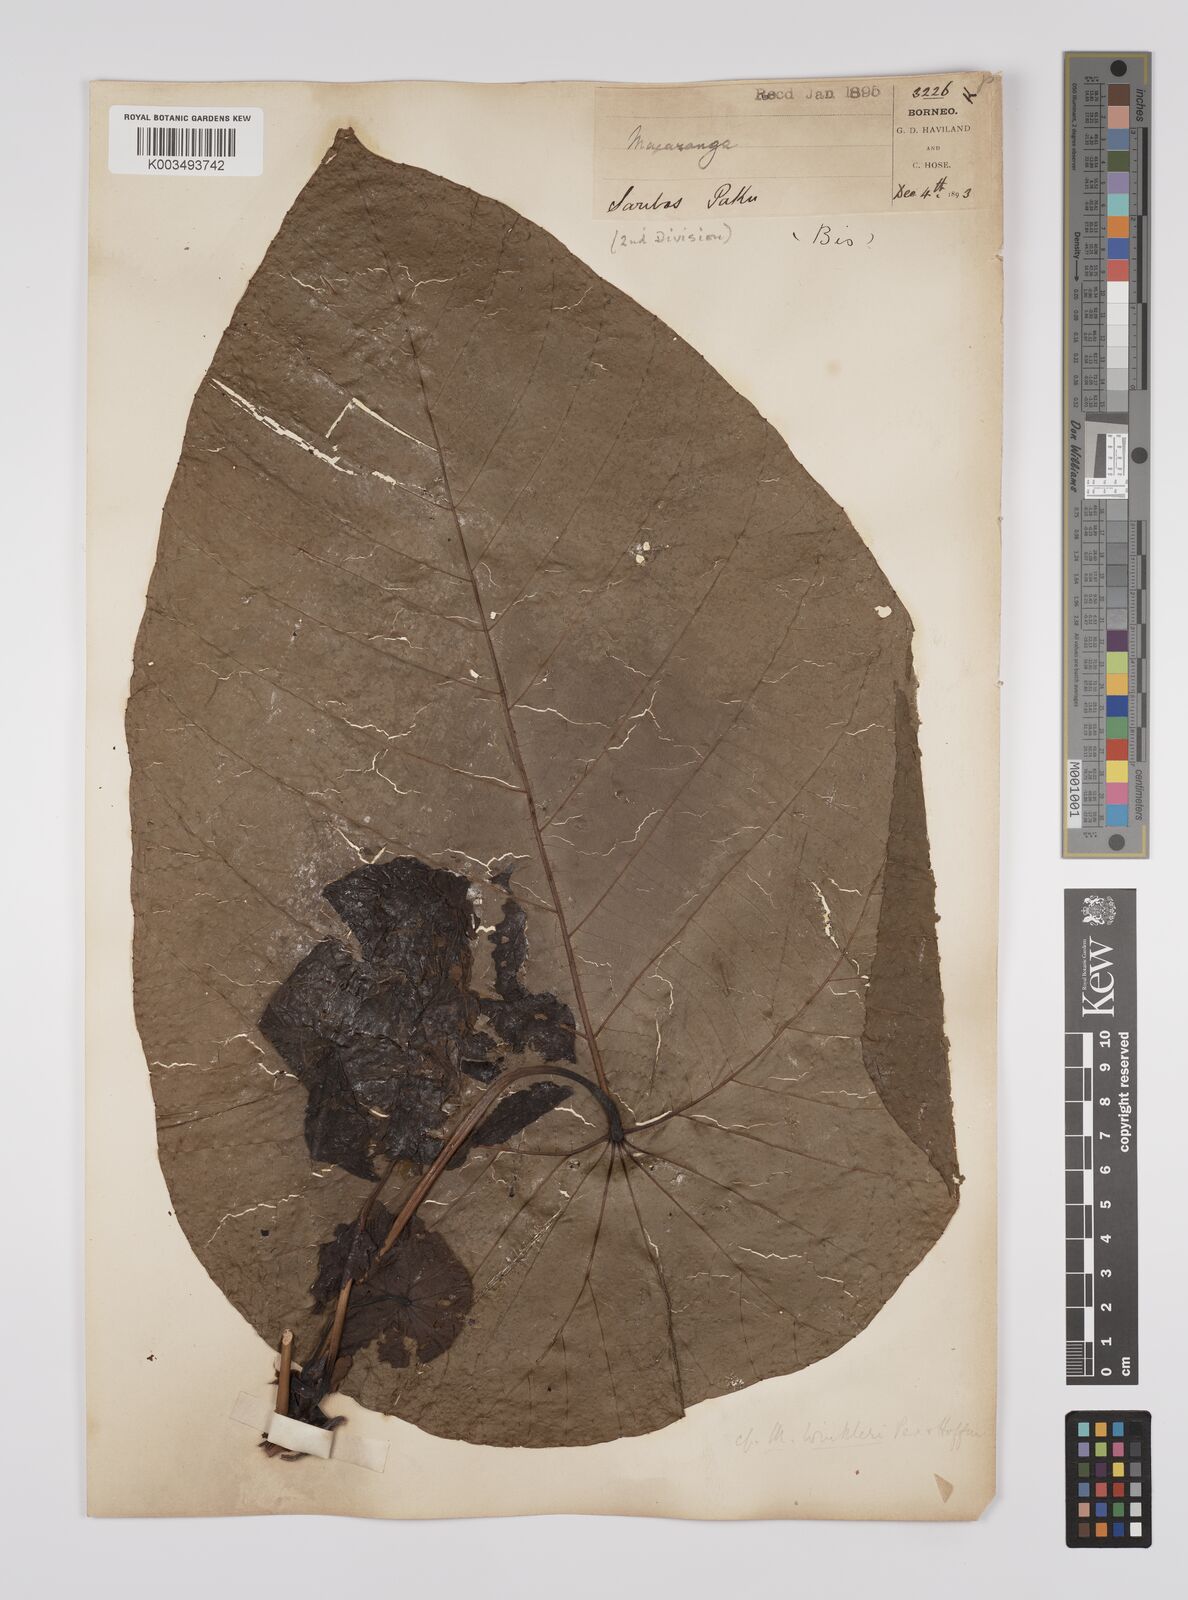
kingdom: Plantae
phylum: Tracheophyta
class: Magnoliopsida
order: Malpighiales
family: Euphorbiaceae
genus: Macaranga
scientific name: Macaranga winkleri
